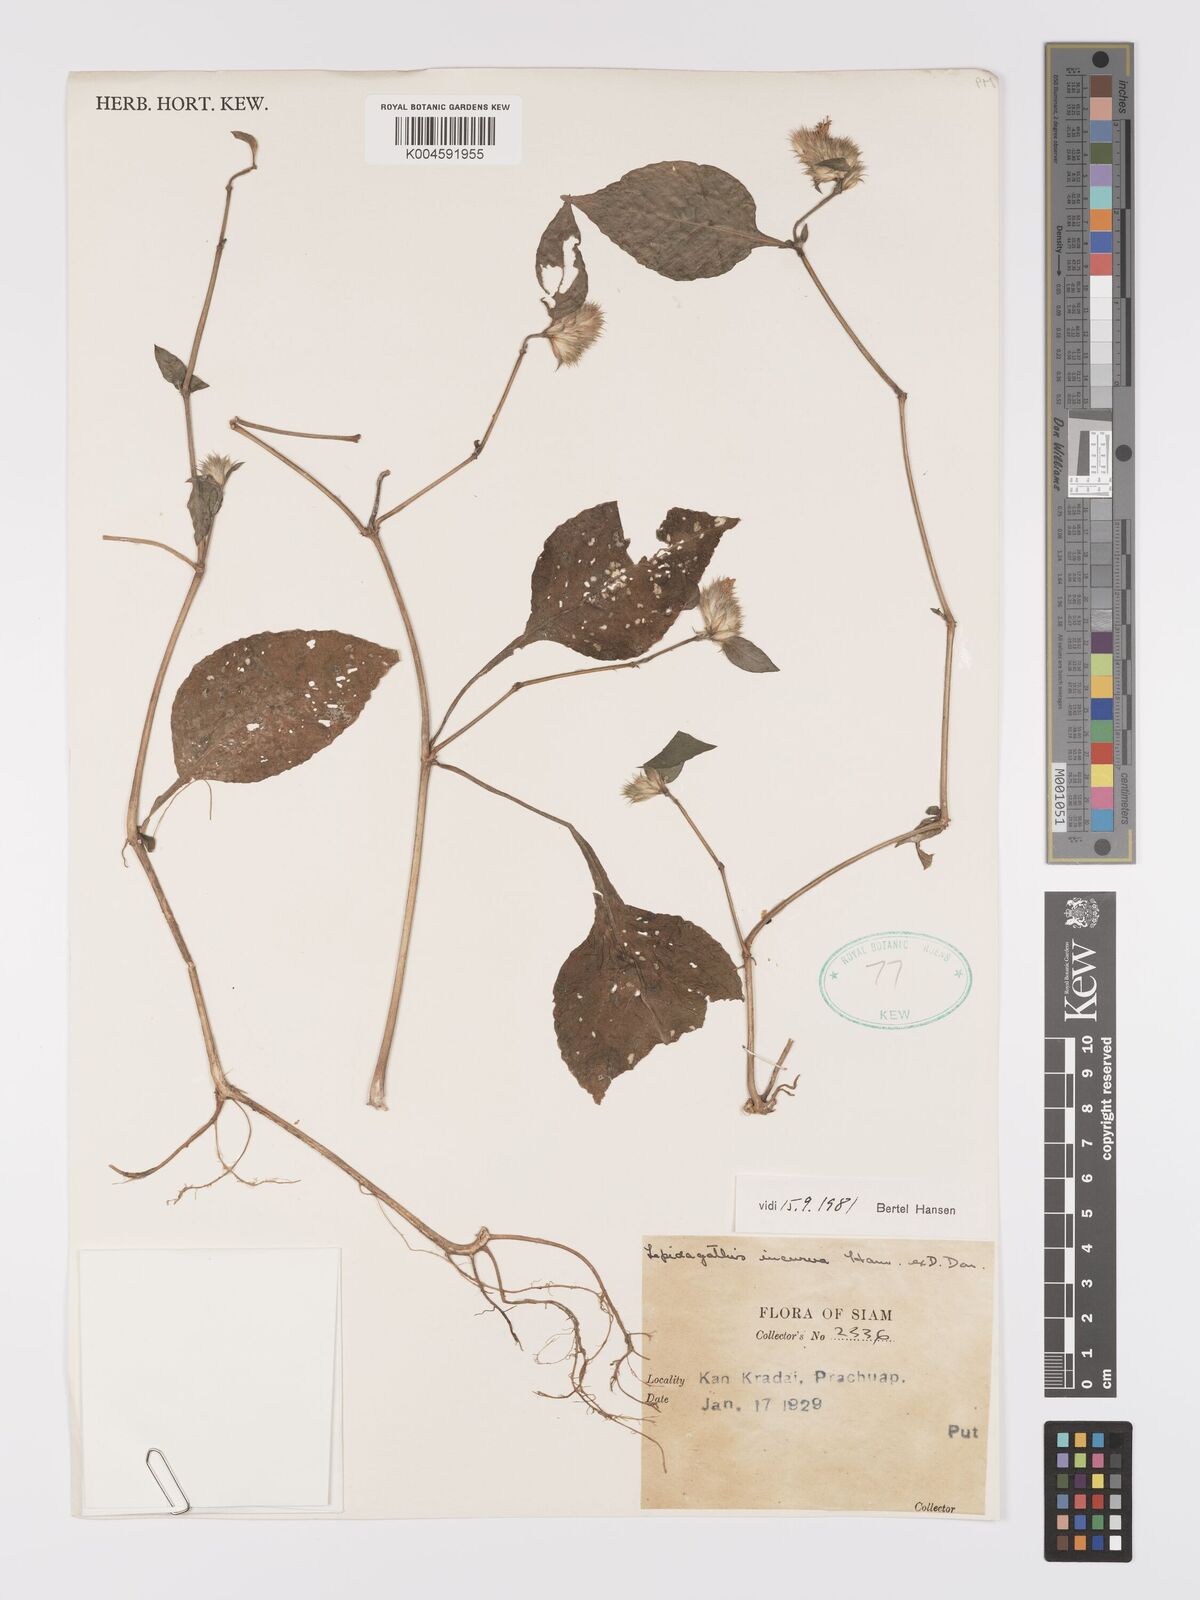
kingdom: Plantae
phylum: Tracheophyta
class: Magnoliopsida
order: Lamiales
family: Acanthaceae
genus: Lepidagathis
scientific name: Lepidagathis incurva
